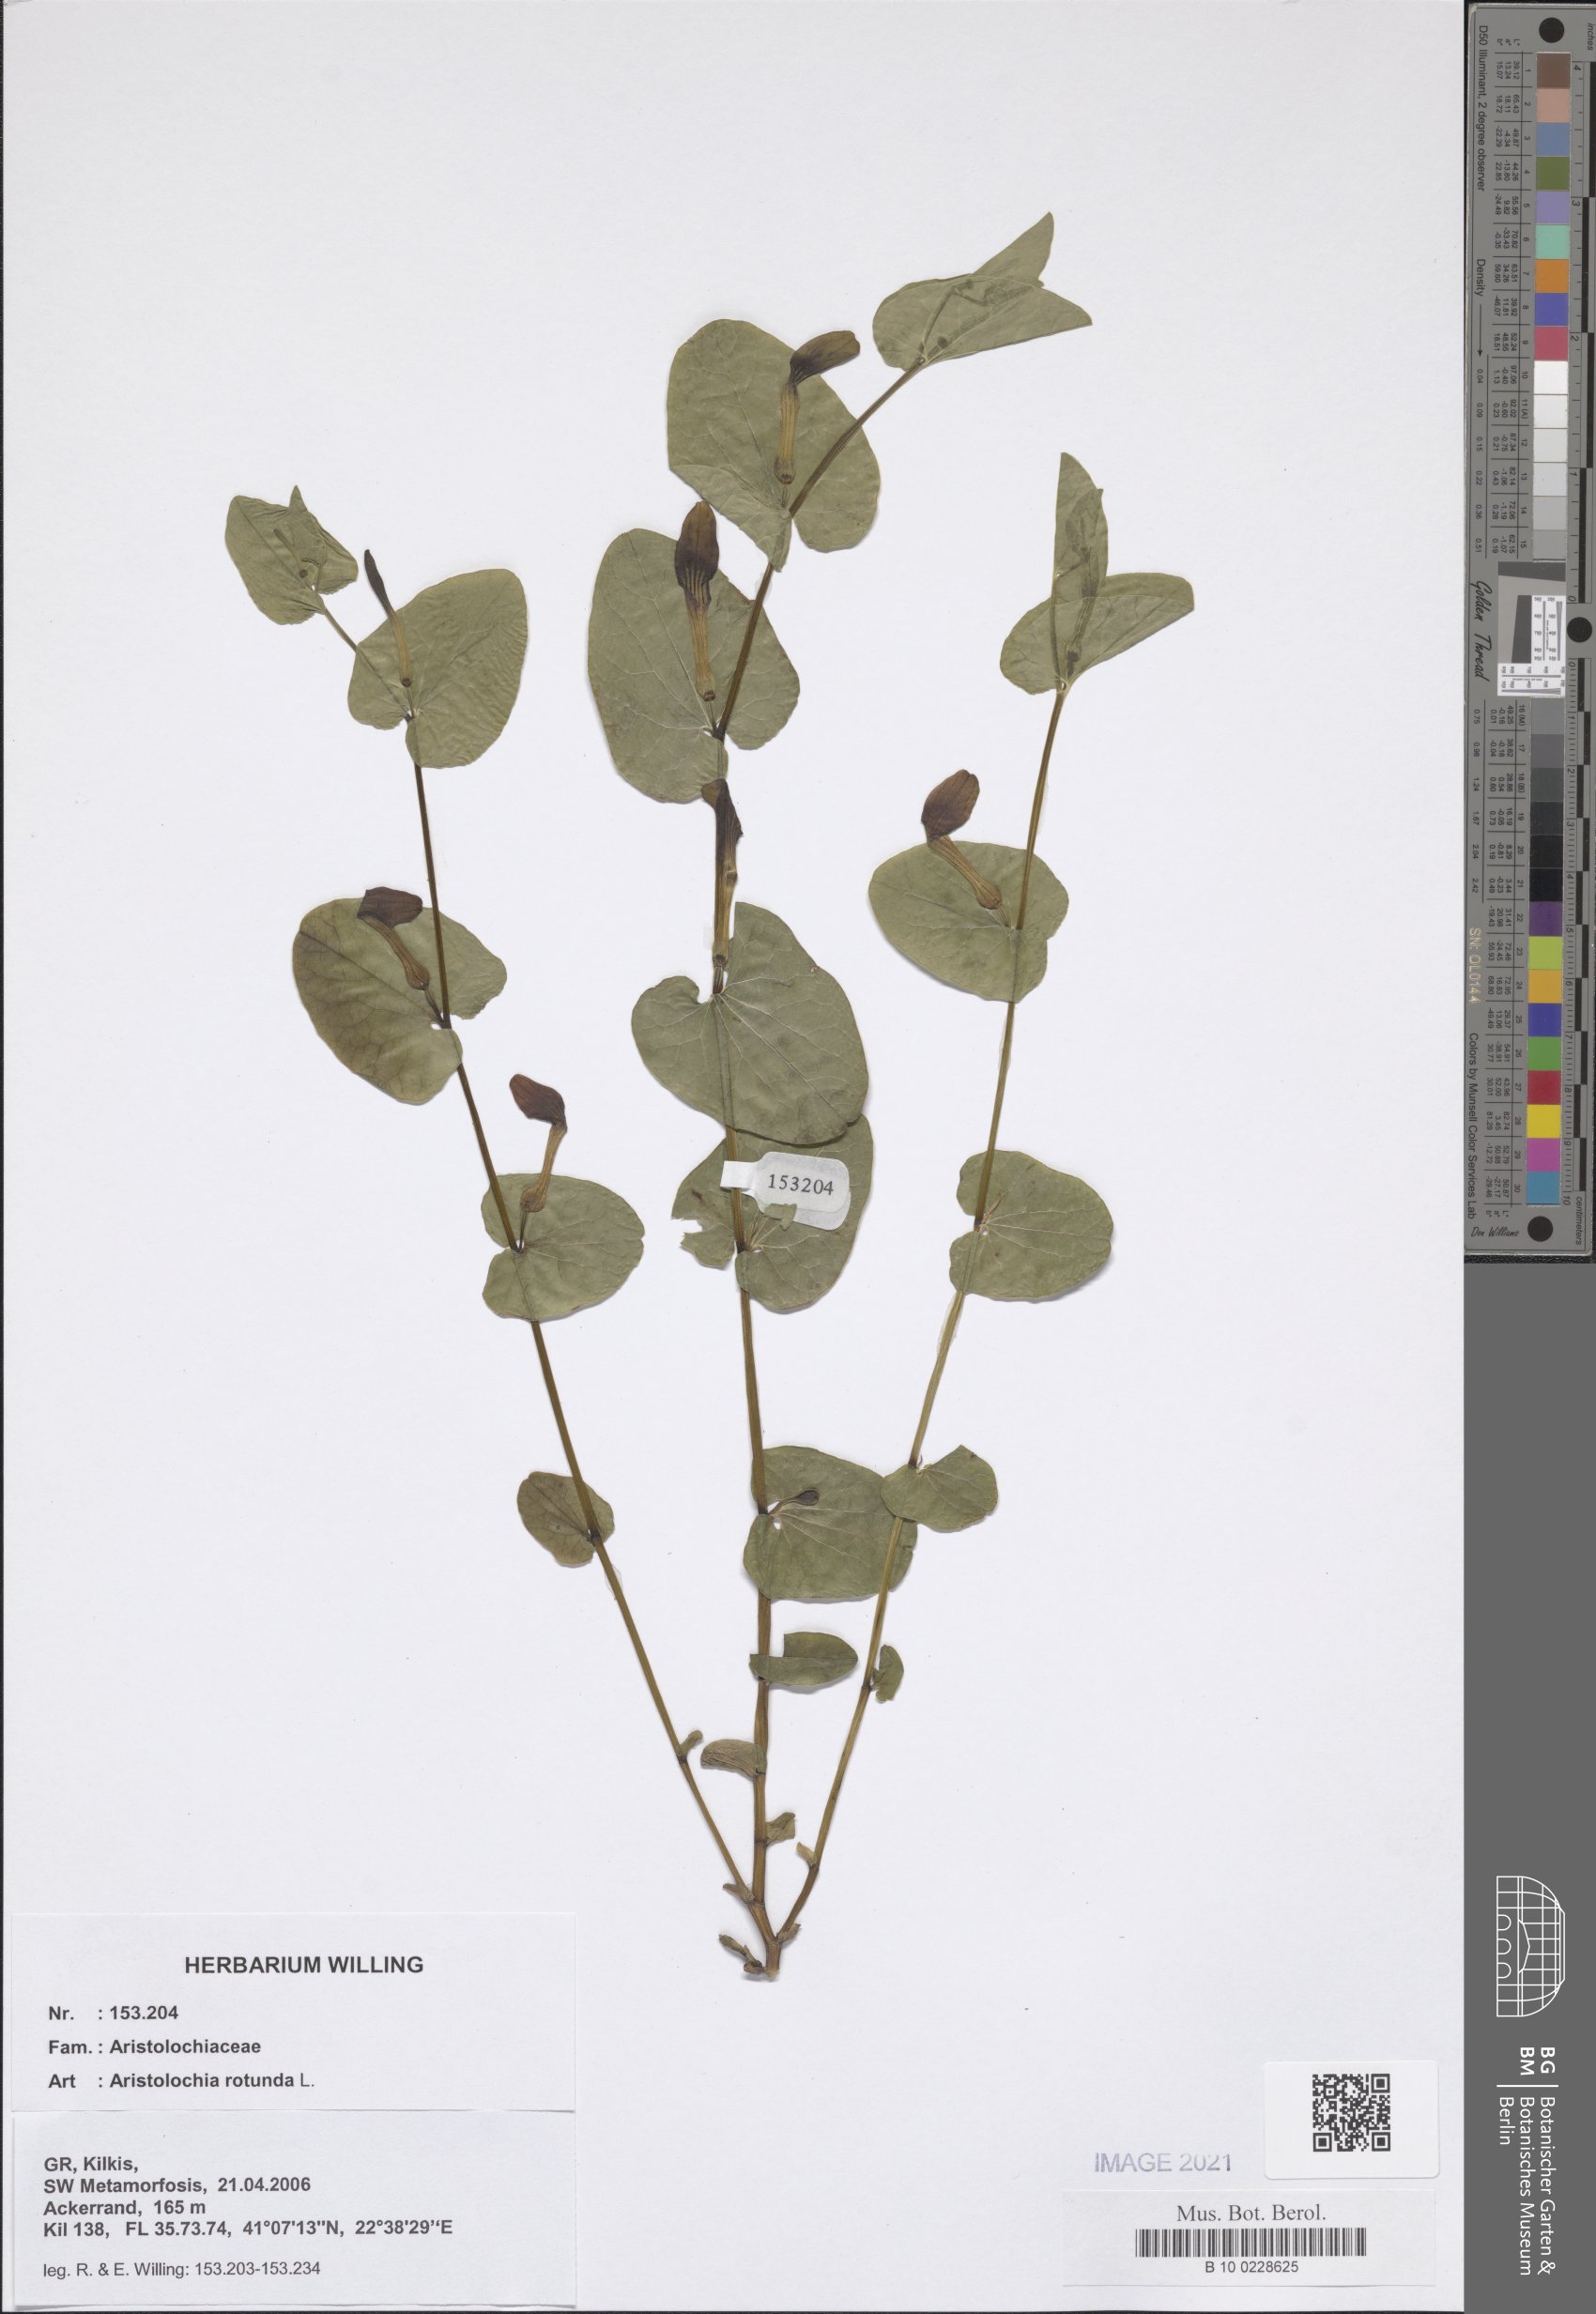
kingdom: Plantae
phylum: Tracheophyta
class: Magnoliopsida
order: Piperales
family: Aristolochiaceae
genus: Aristolochia
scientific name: Aristolochia rotunda
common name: Smearwort
